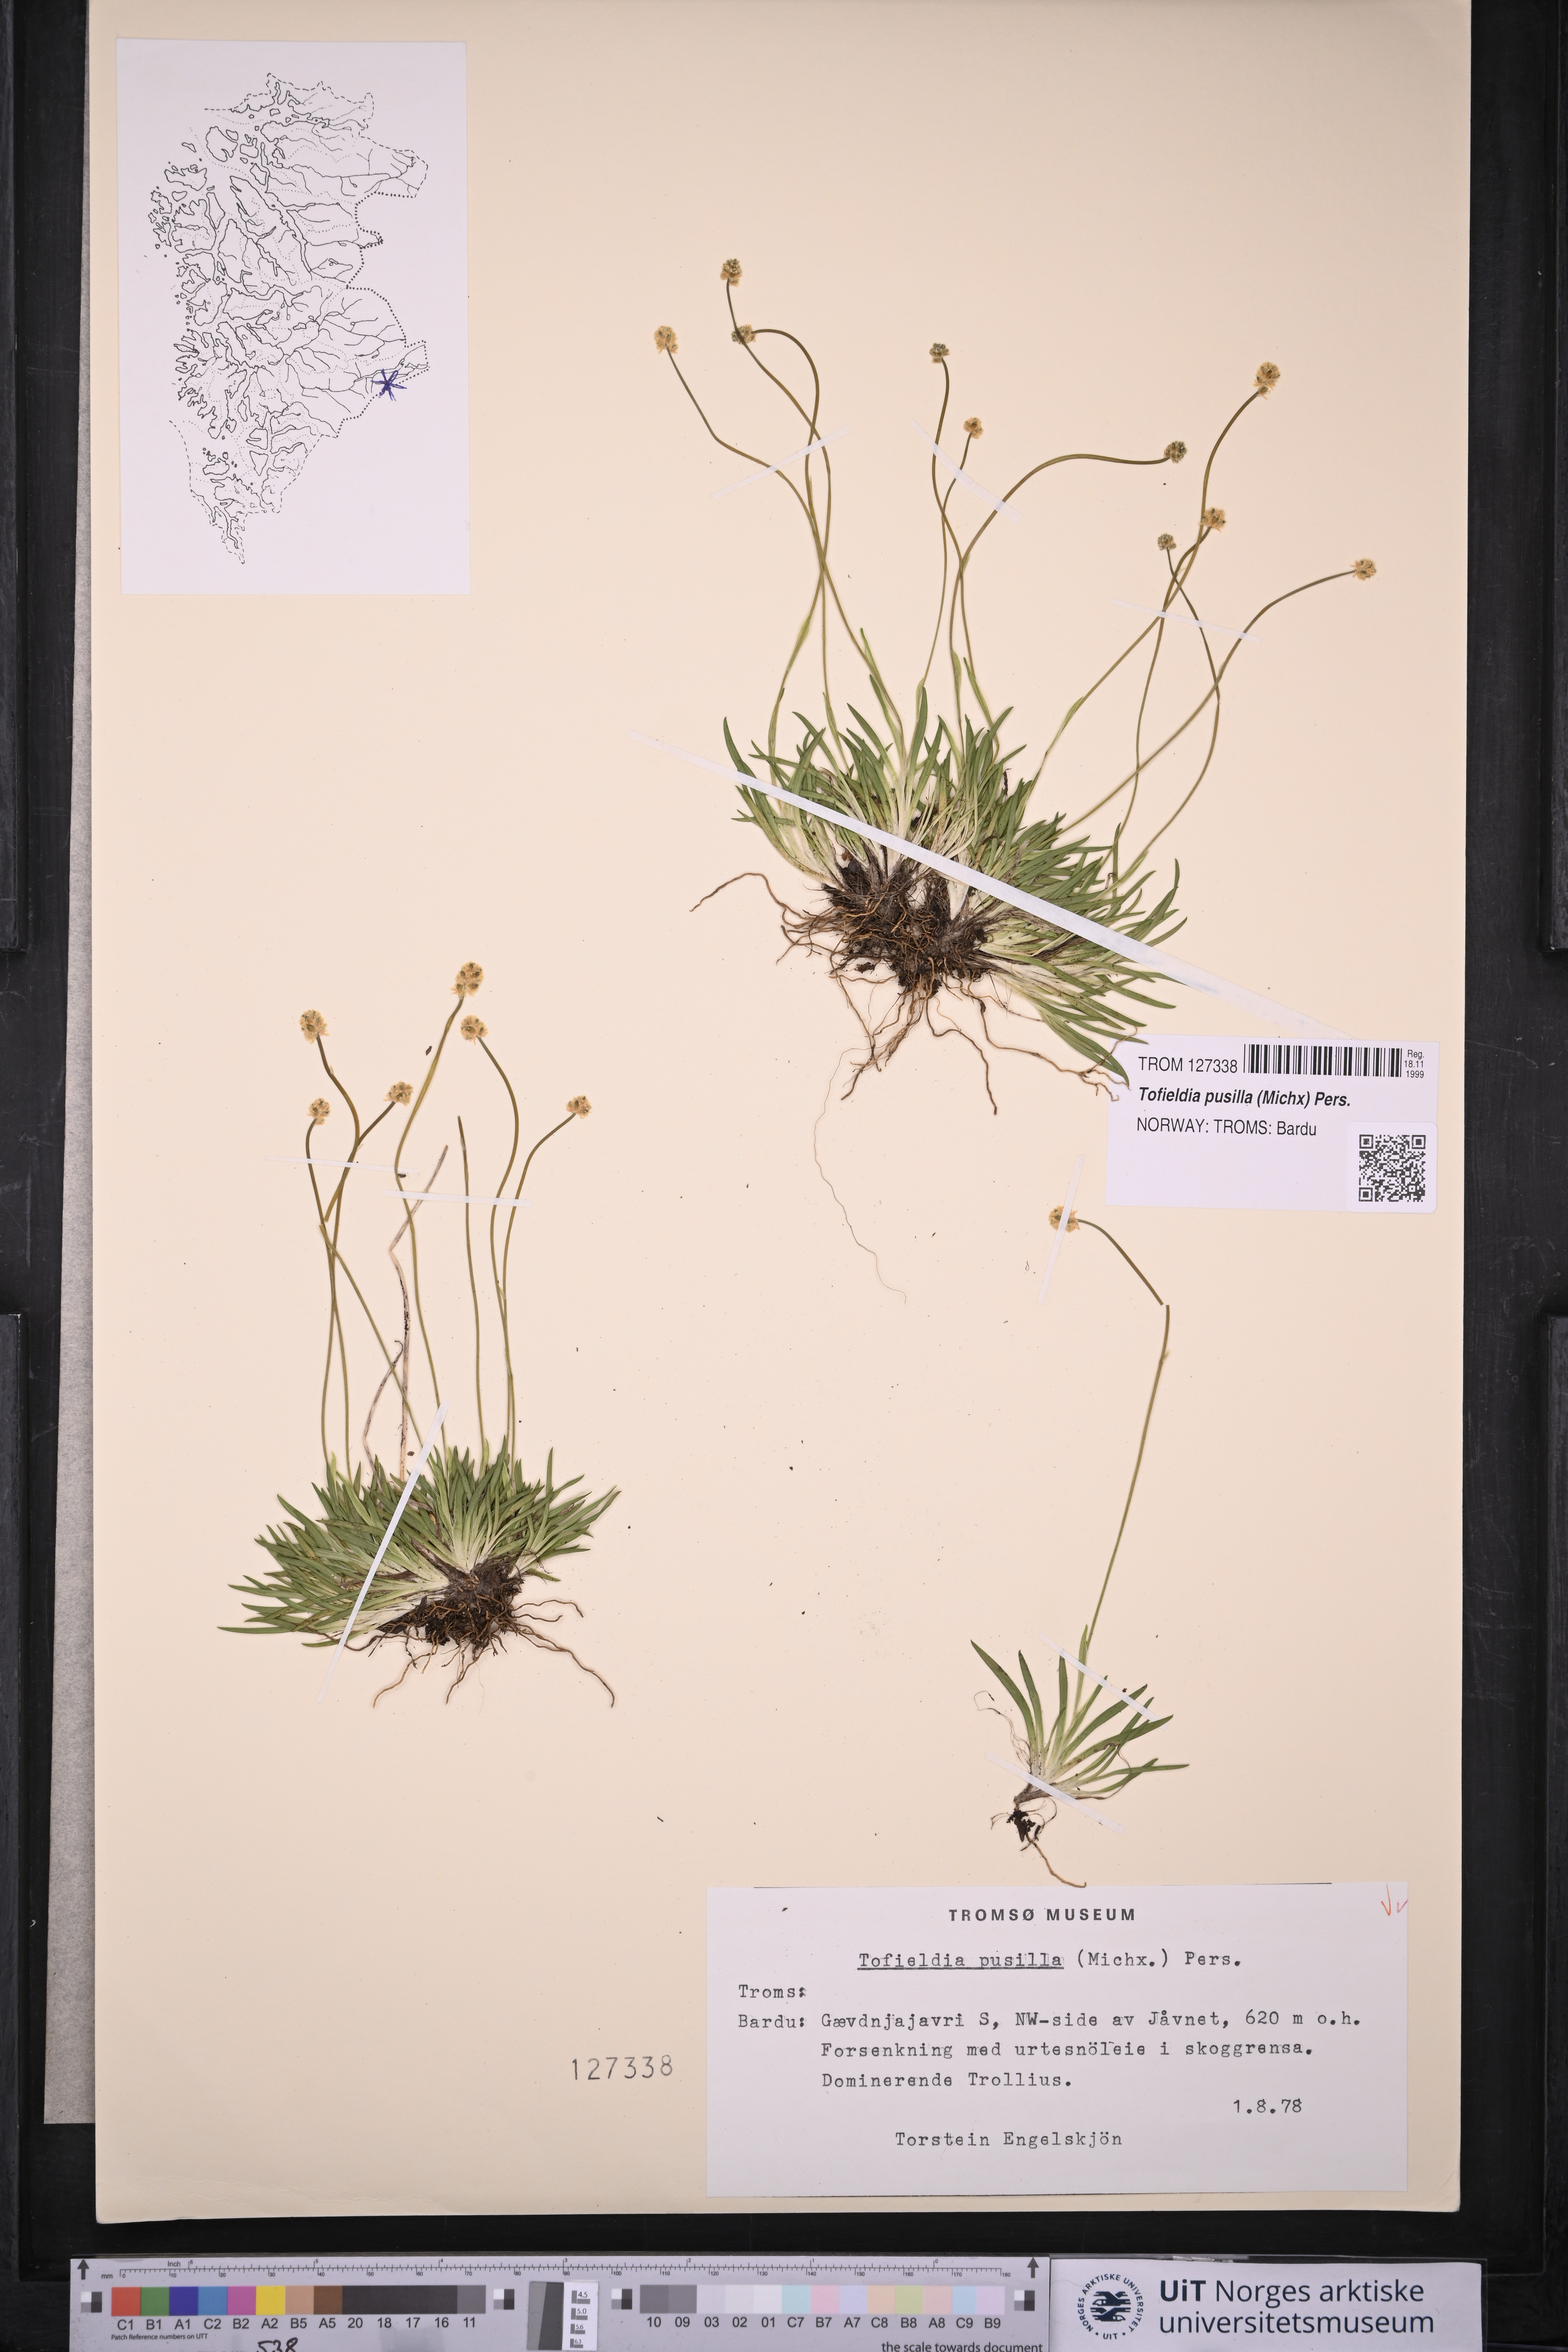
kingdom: Plantae
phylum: Tracheophyta
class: Liliopsida
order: Alismatales
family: Tofieldiaceae
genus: Tofieldia
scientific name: Tofieldia pusilla
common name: Scottish false asphodel
